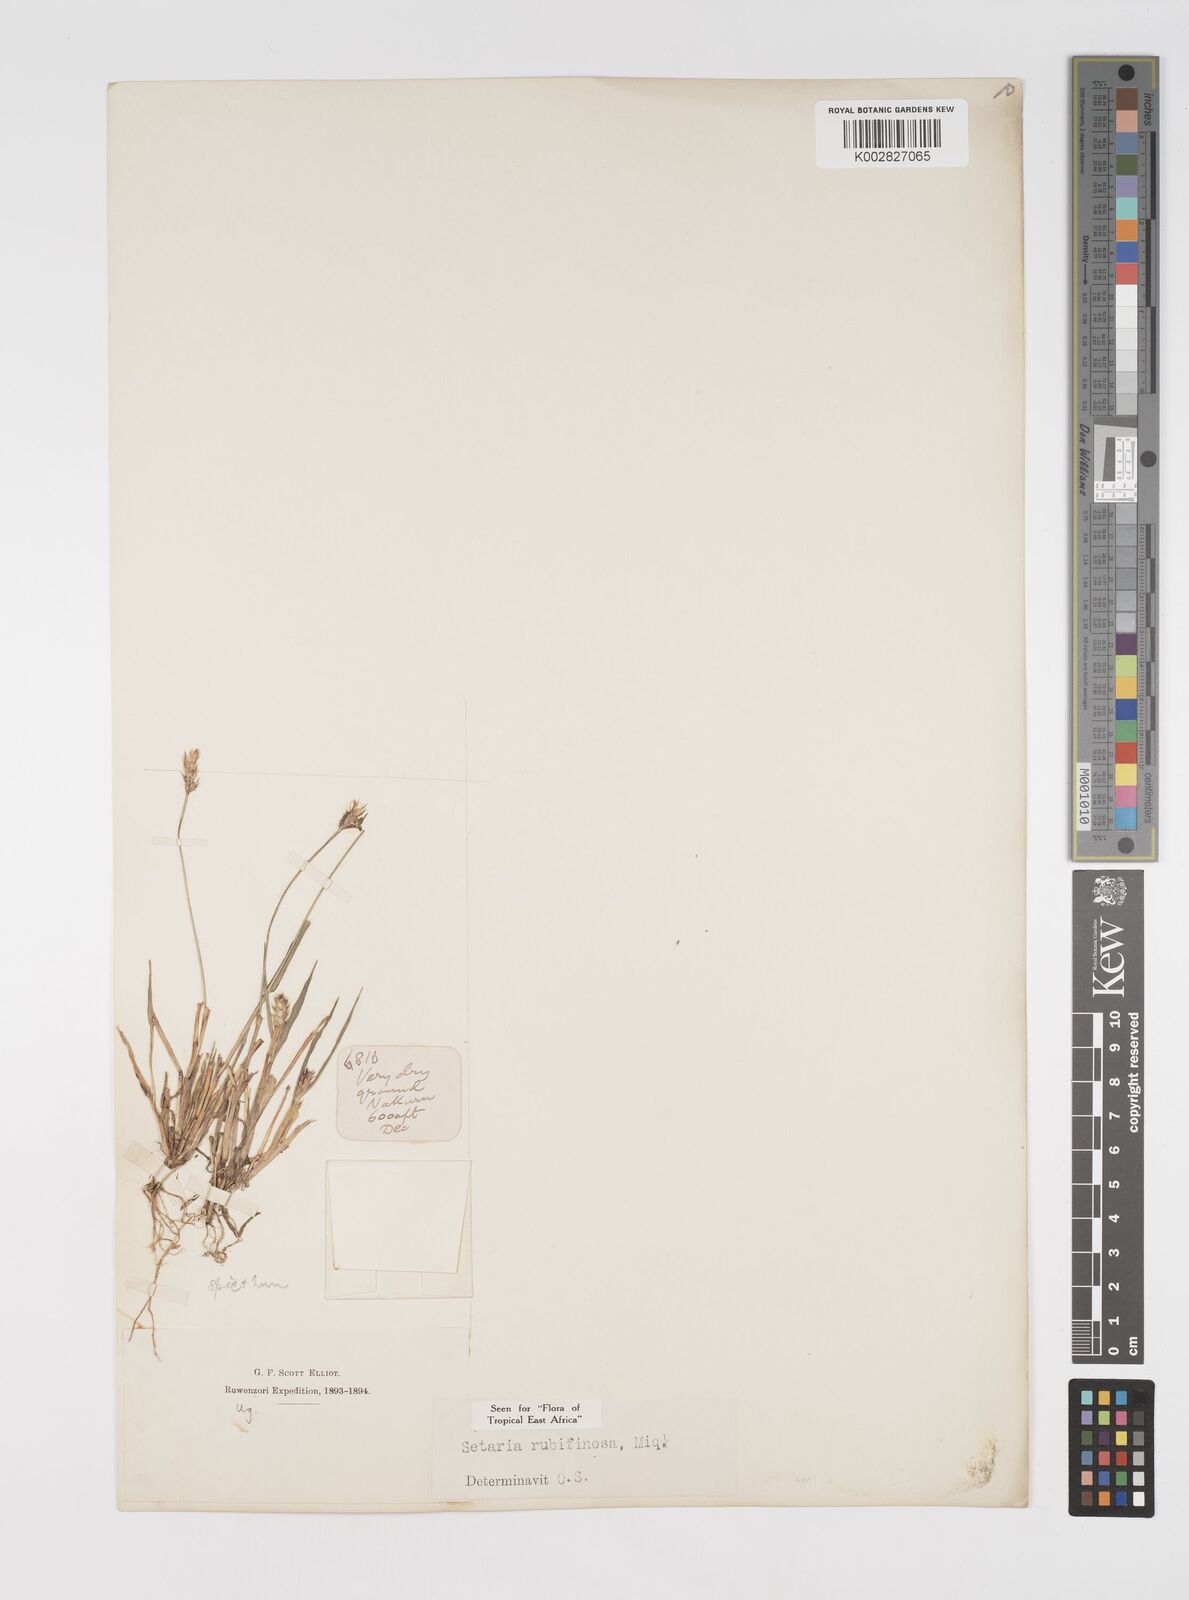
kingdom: Plantae
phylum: Tracheophyta
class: Liliopsida
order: Poales
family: Poaceae
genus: Setaria
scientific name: Setaria pumila
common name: Yellow bristle-grass
